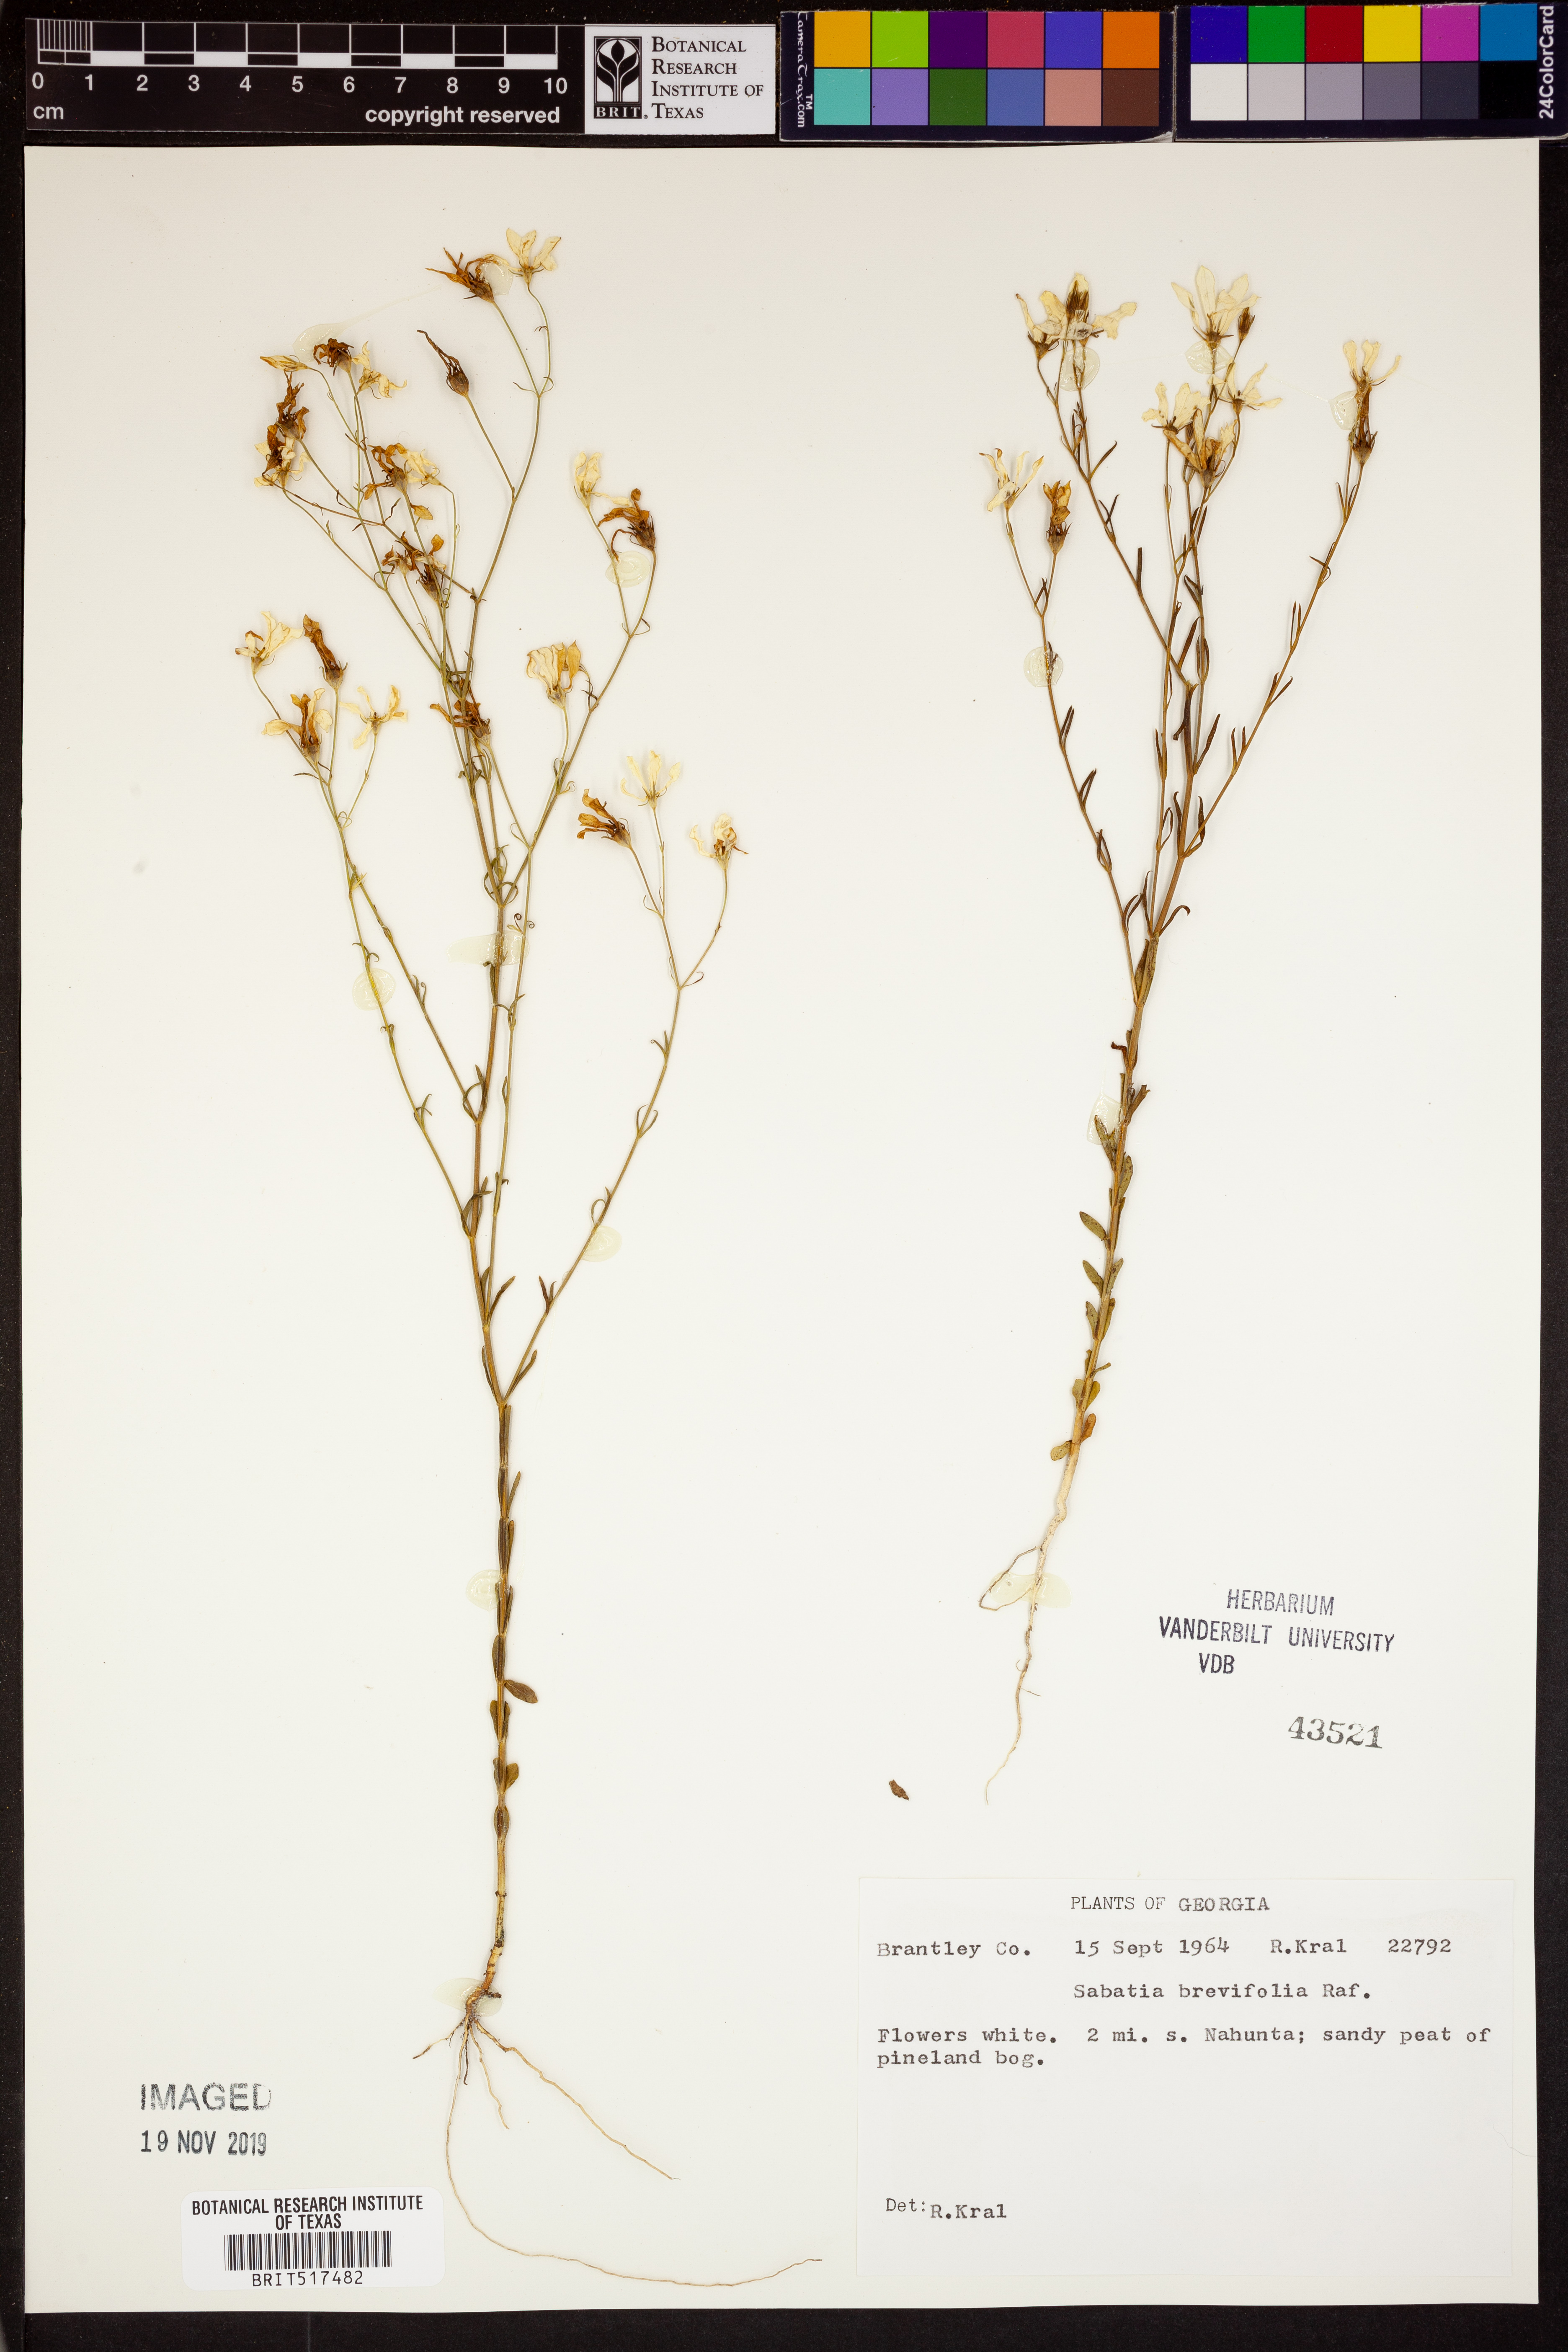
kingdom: Plantae
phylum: Tracheophyta
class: Magnoliopsida
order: Gentianales
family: Gentianaceae
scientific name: Gentianaceae
